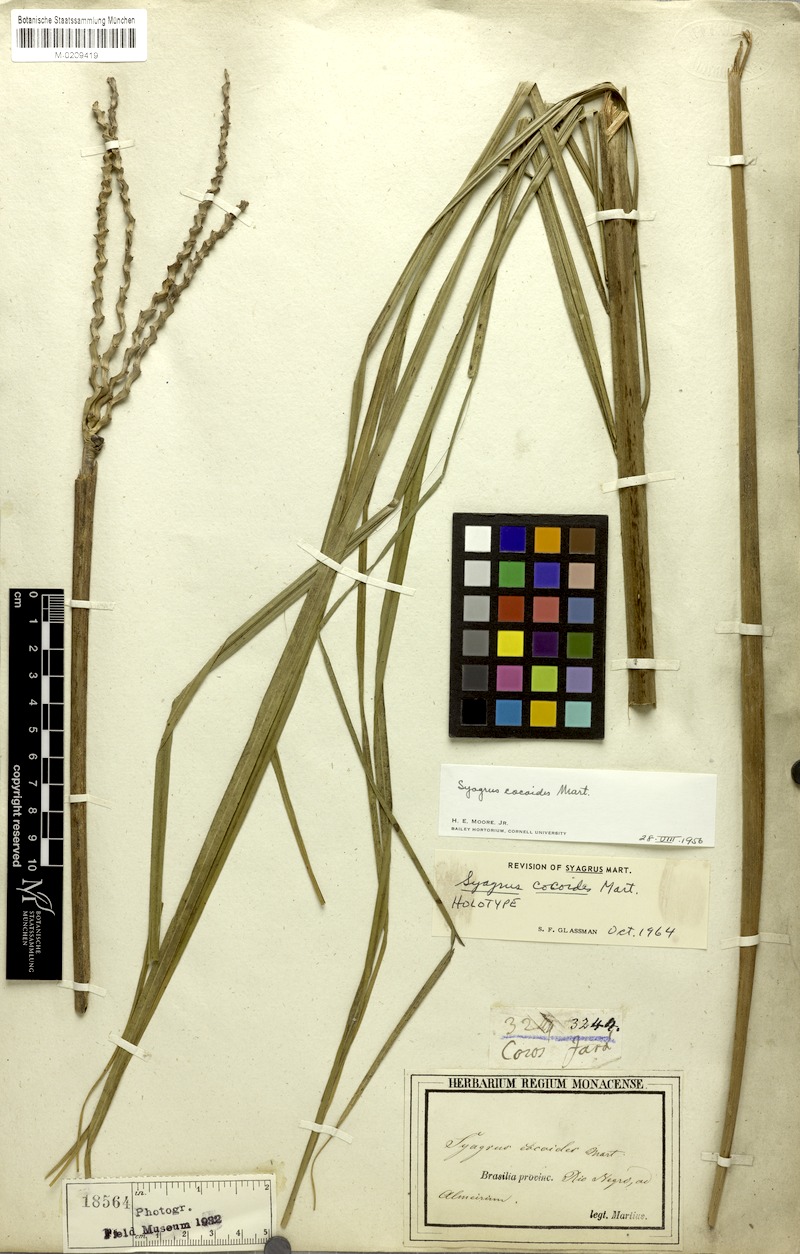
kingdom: Plantae
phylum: Tracheophyta
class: Liliopsida
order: Arecales
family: Arecaceae
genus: Syagrus
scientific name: Syagrus cocoides
